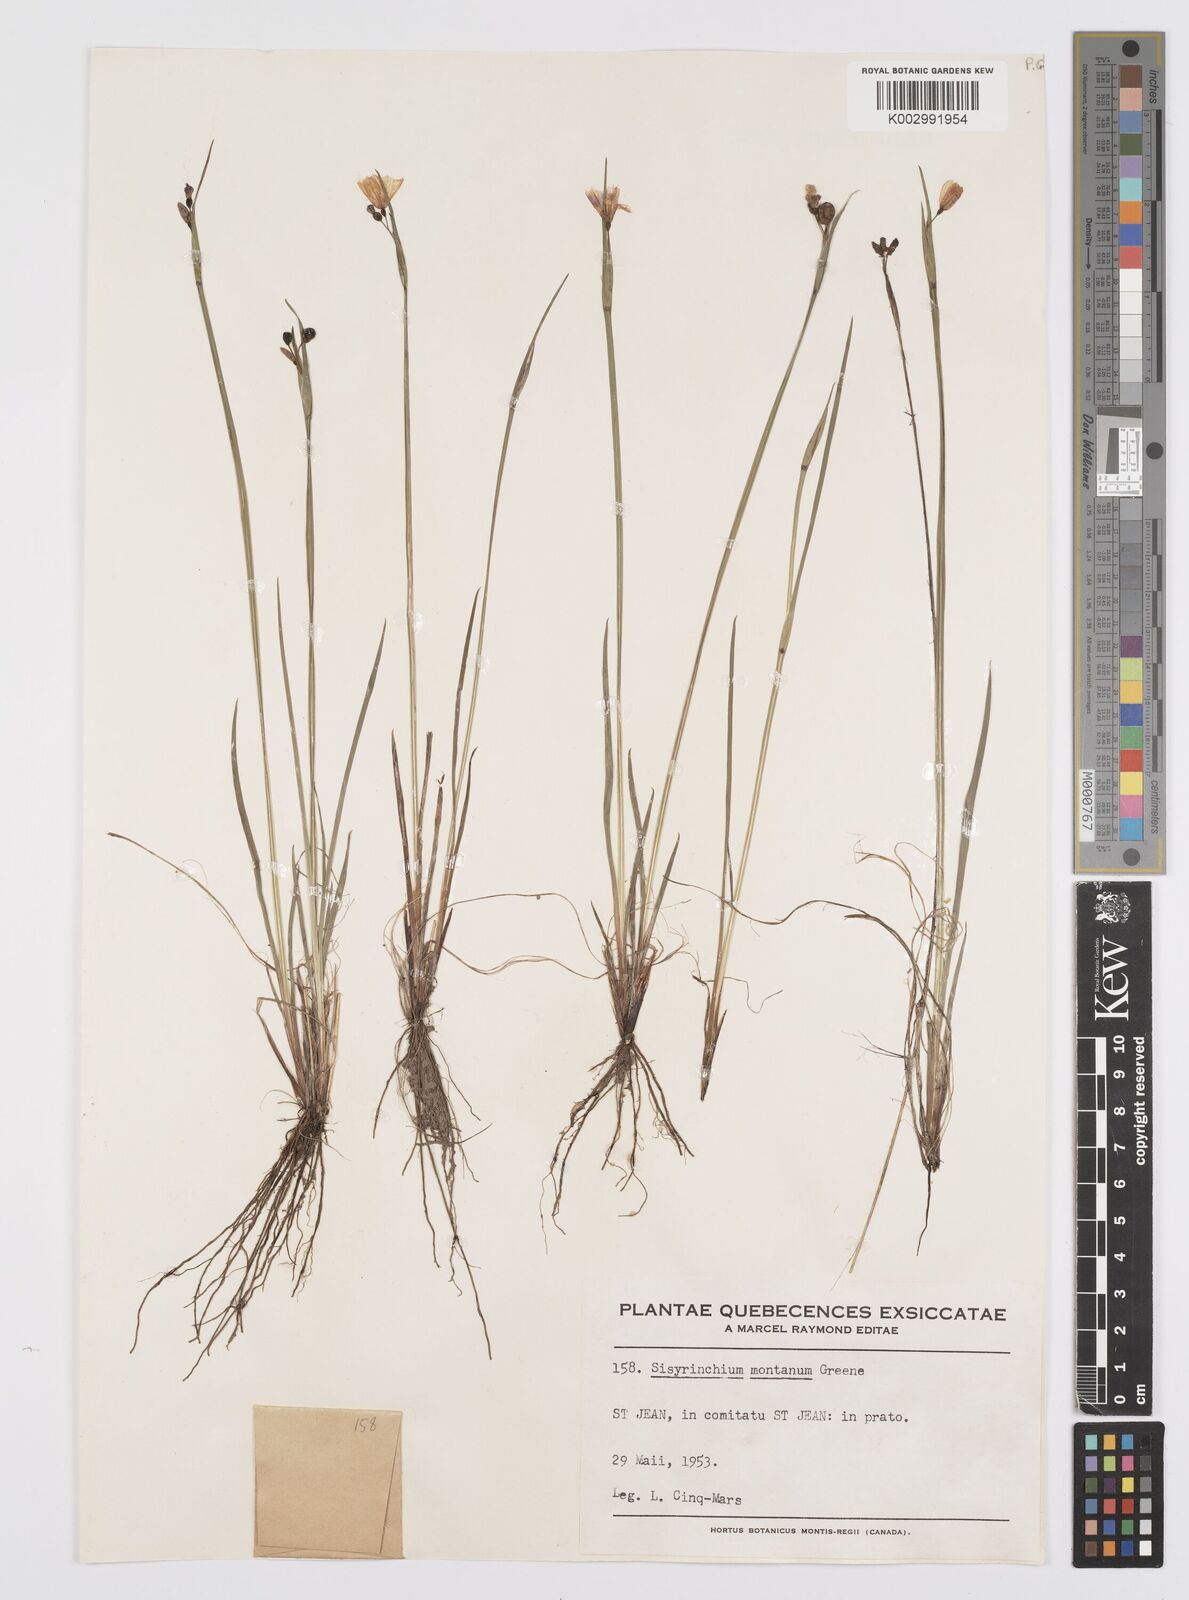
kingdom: Plantae
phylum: Tracheophyta
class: Liliopsida
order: Asparagales
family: Iridaceae
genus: Sisyrinchium
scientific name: Sisyrinchium montanum
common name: American blue-eyed-grass
